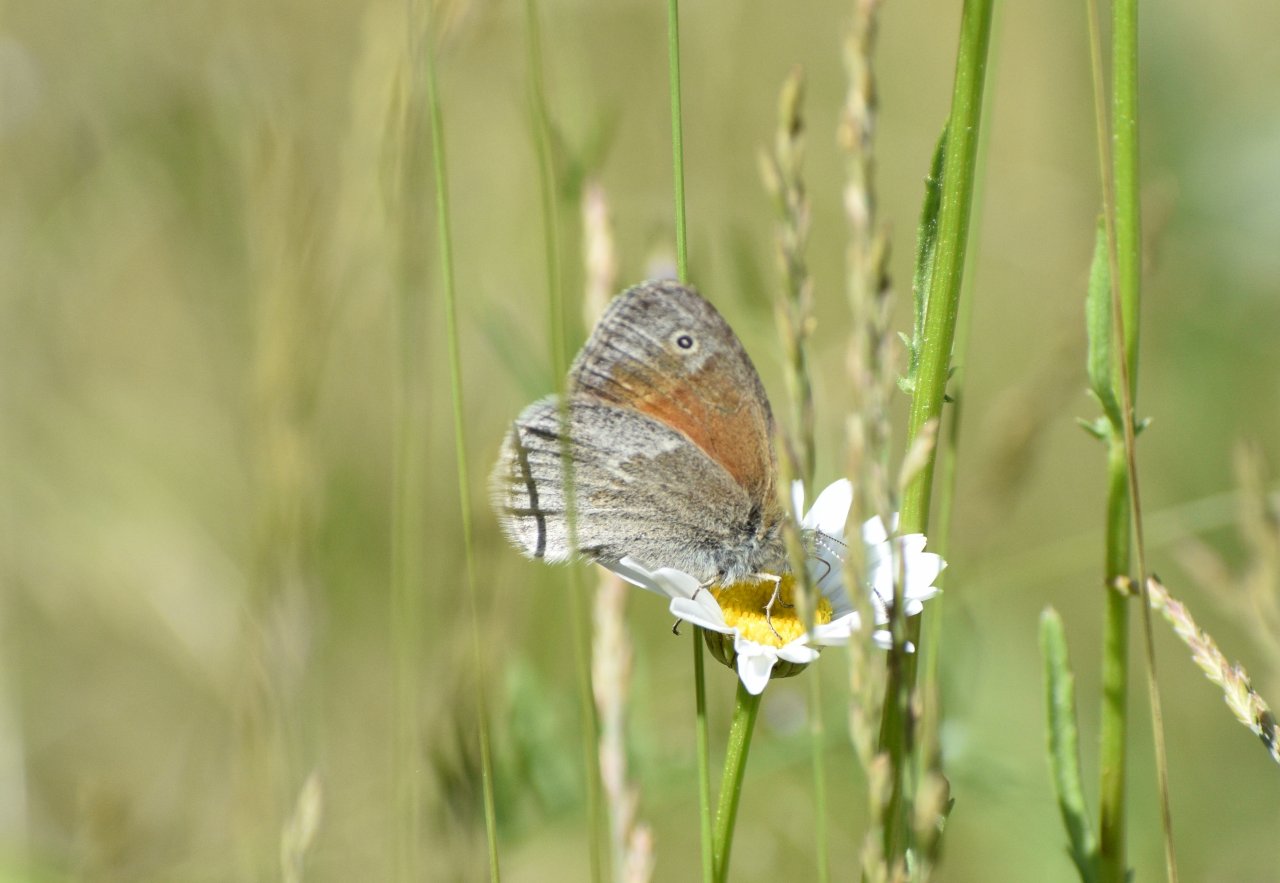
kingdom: Animalia
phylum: Arthropoda
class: Insecta
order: Lepidoptera
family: Nymphalidae
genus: Coenonympha
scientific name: Coenonympha tullia
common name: Large Heath
